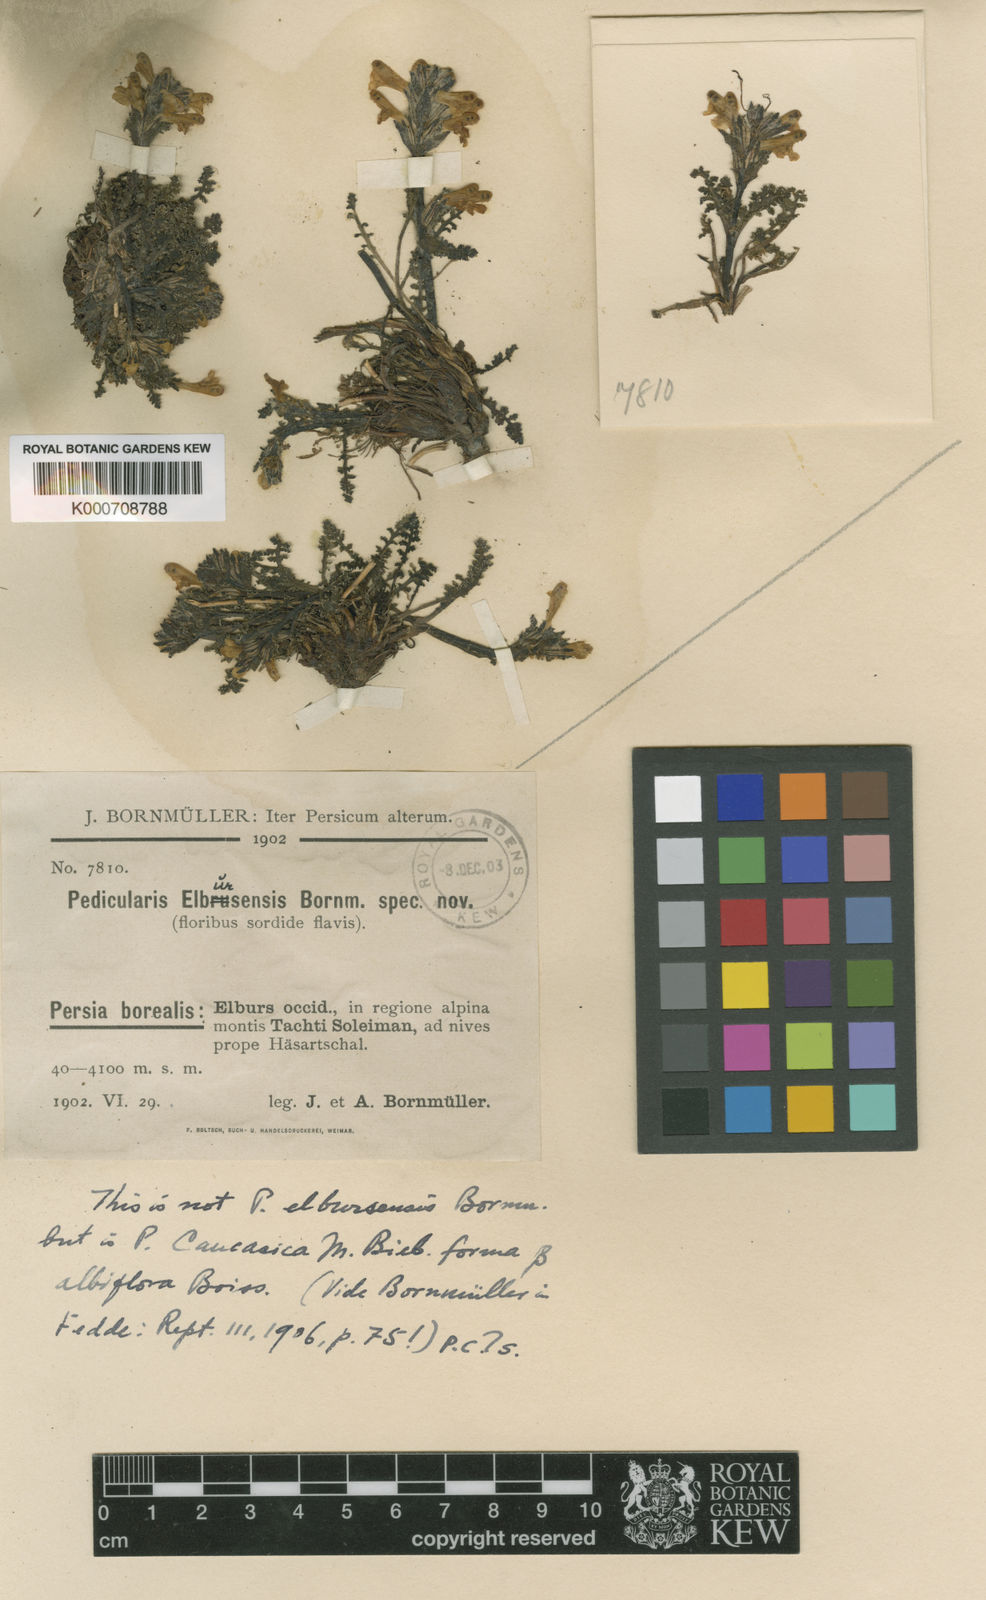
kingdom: Plantae
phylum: Tracheophyta
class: Magnoliopsida
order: Lamiales
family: Orobanchaceae
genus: Pedicularis
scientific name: Pedicularis
